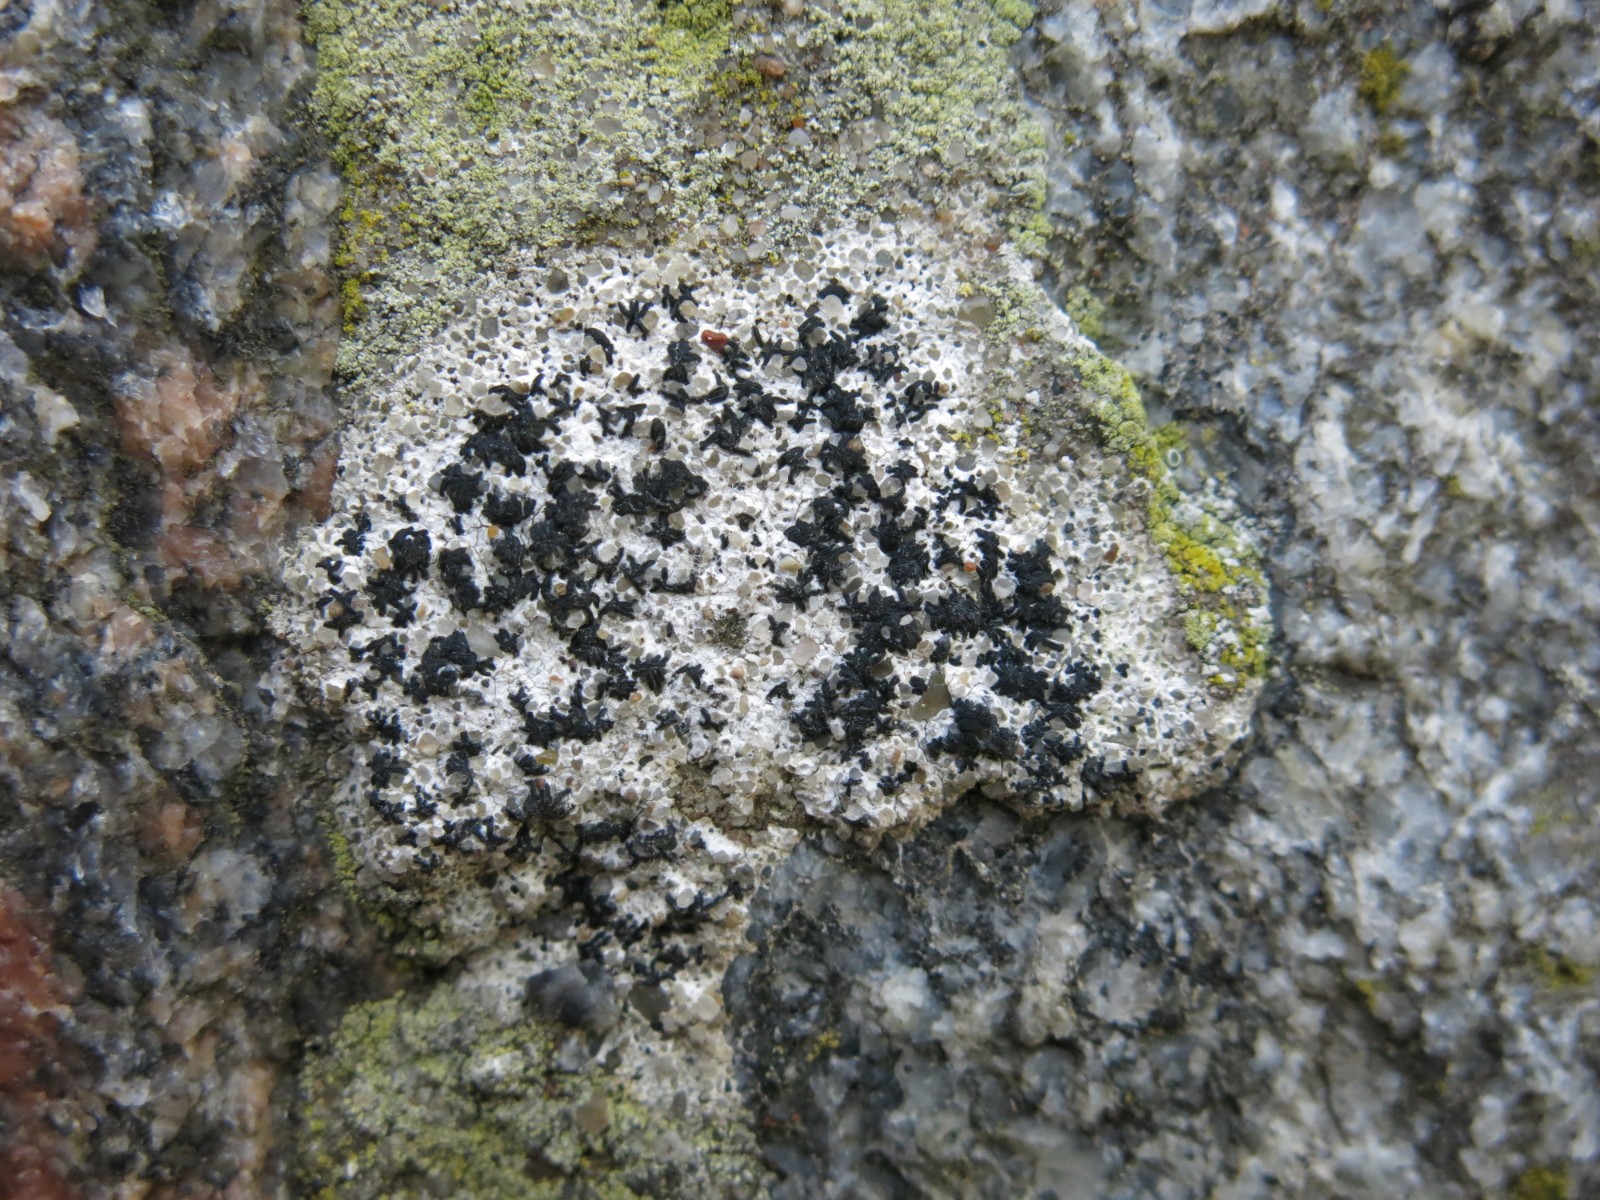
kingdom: Fungi
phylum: Ascomycota
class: Arthoniomycetes
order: Arthoniales
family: Arthoniaceae
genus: Arthonia
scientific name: Arthonia calcarea
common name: kalk-bogstavlav
